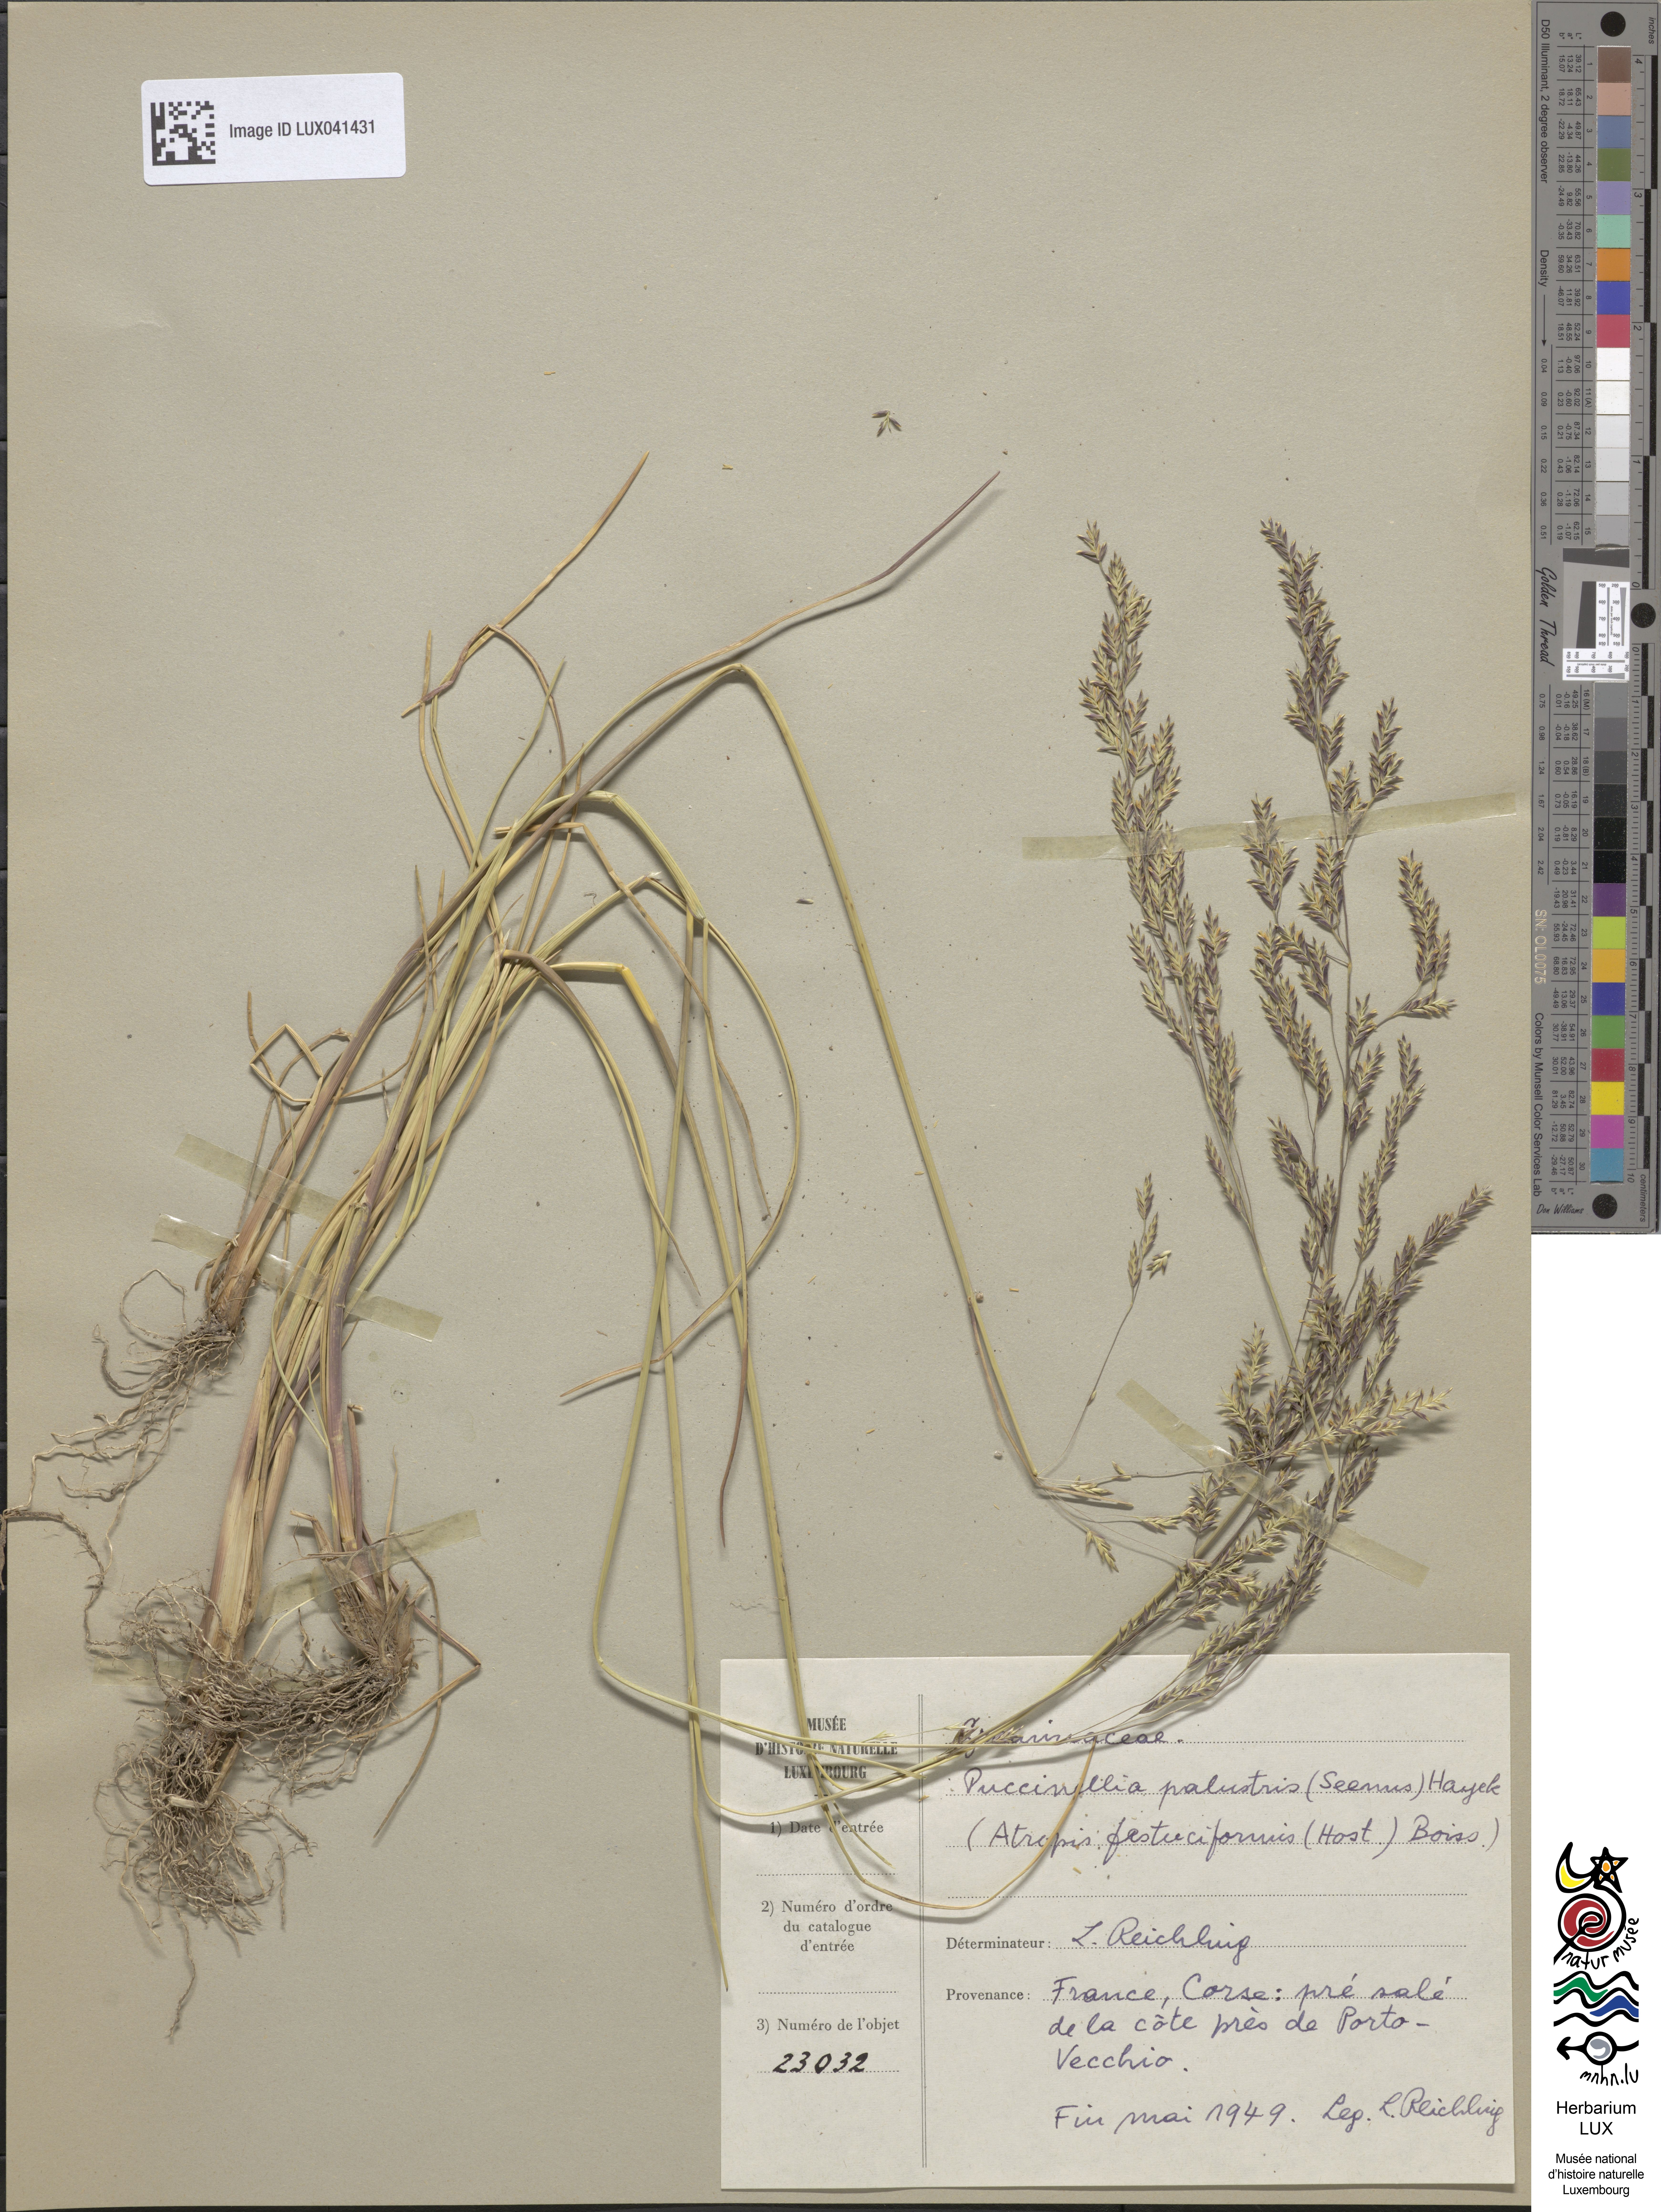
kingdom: Plantae
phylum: Tracheophyta
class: Liliopsida
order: Poales
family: Poaceae
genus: Puccinellia
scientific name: Puccinellia festuciformis
